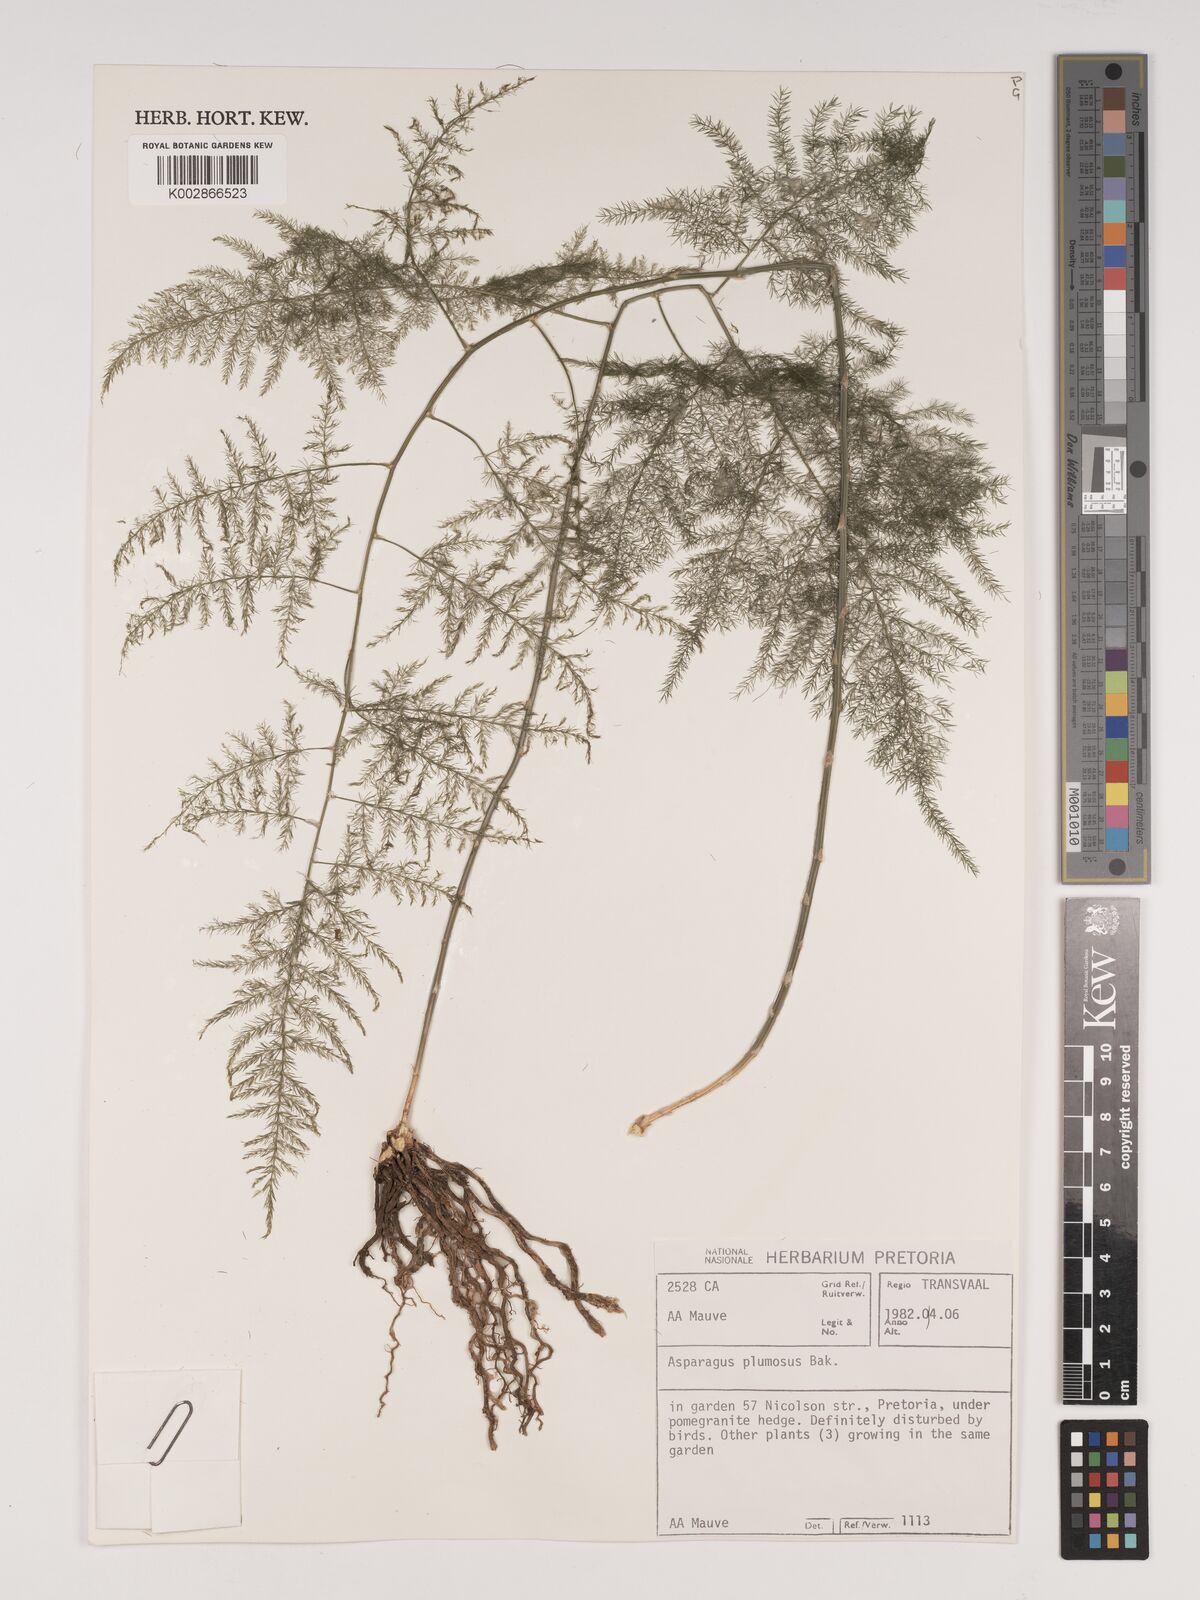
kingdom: Plantae
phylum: Tracheophyta
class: Liliopsida
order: Asparagales
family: Asparagaceae
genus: Asparagus
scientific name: Asparagus setaceus
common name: Common asparagus fern
